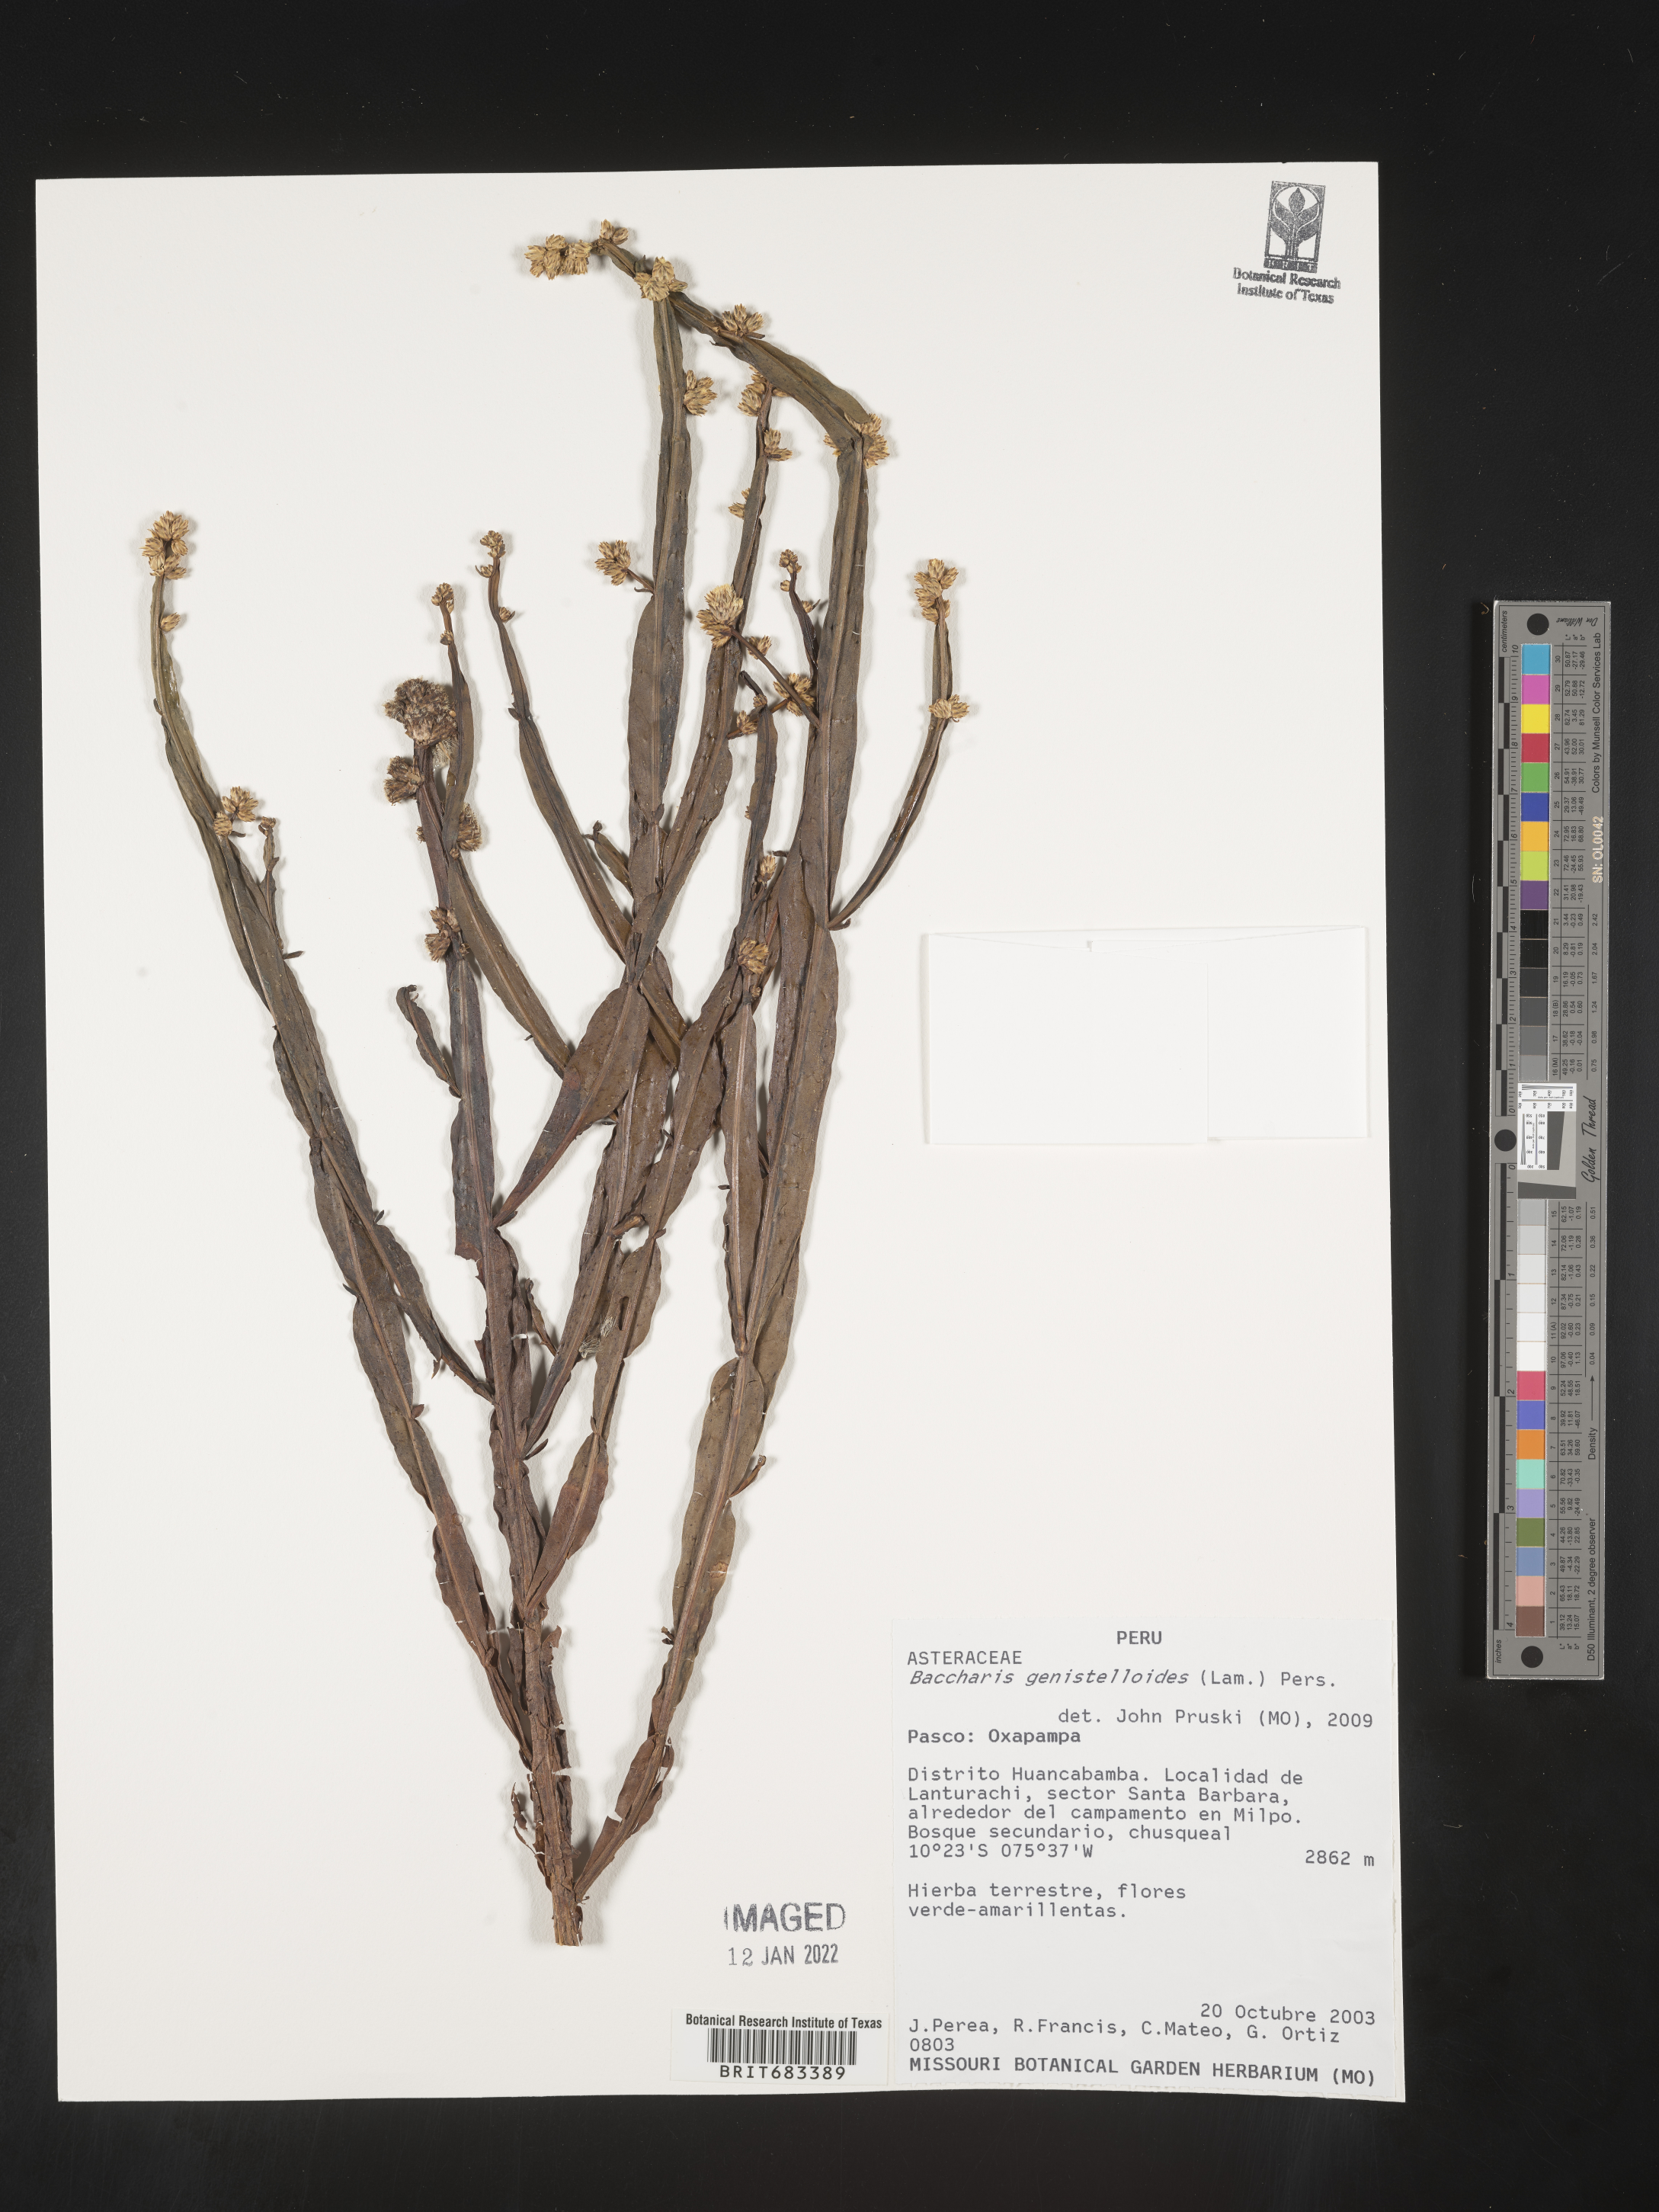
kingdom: Plantae
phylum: Tracheophyta
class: Magnoliopsida
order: Asterales
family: Asteraceae
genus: Baccharis
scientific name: Baccharis
